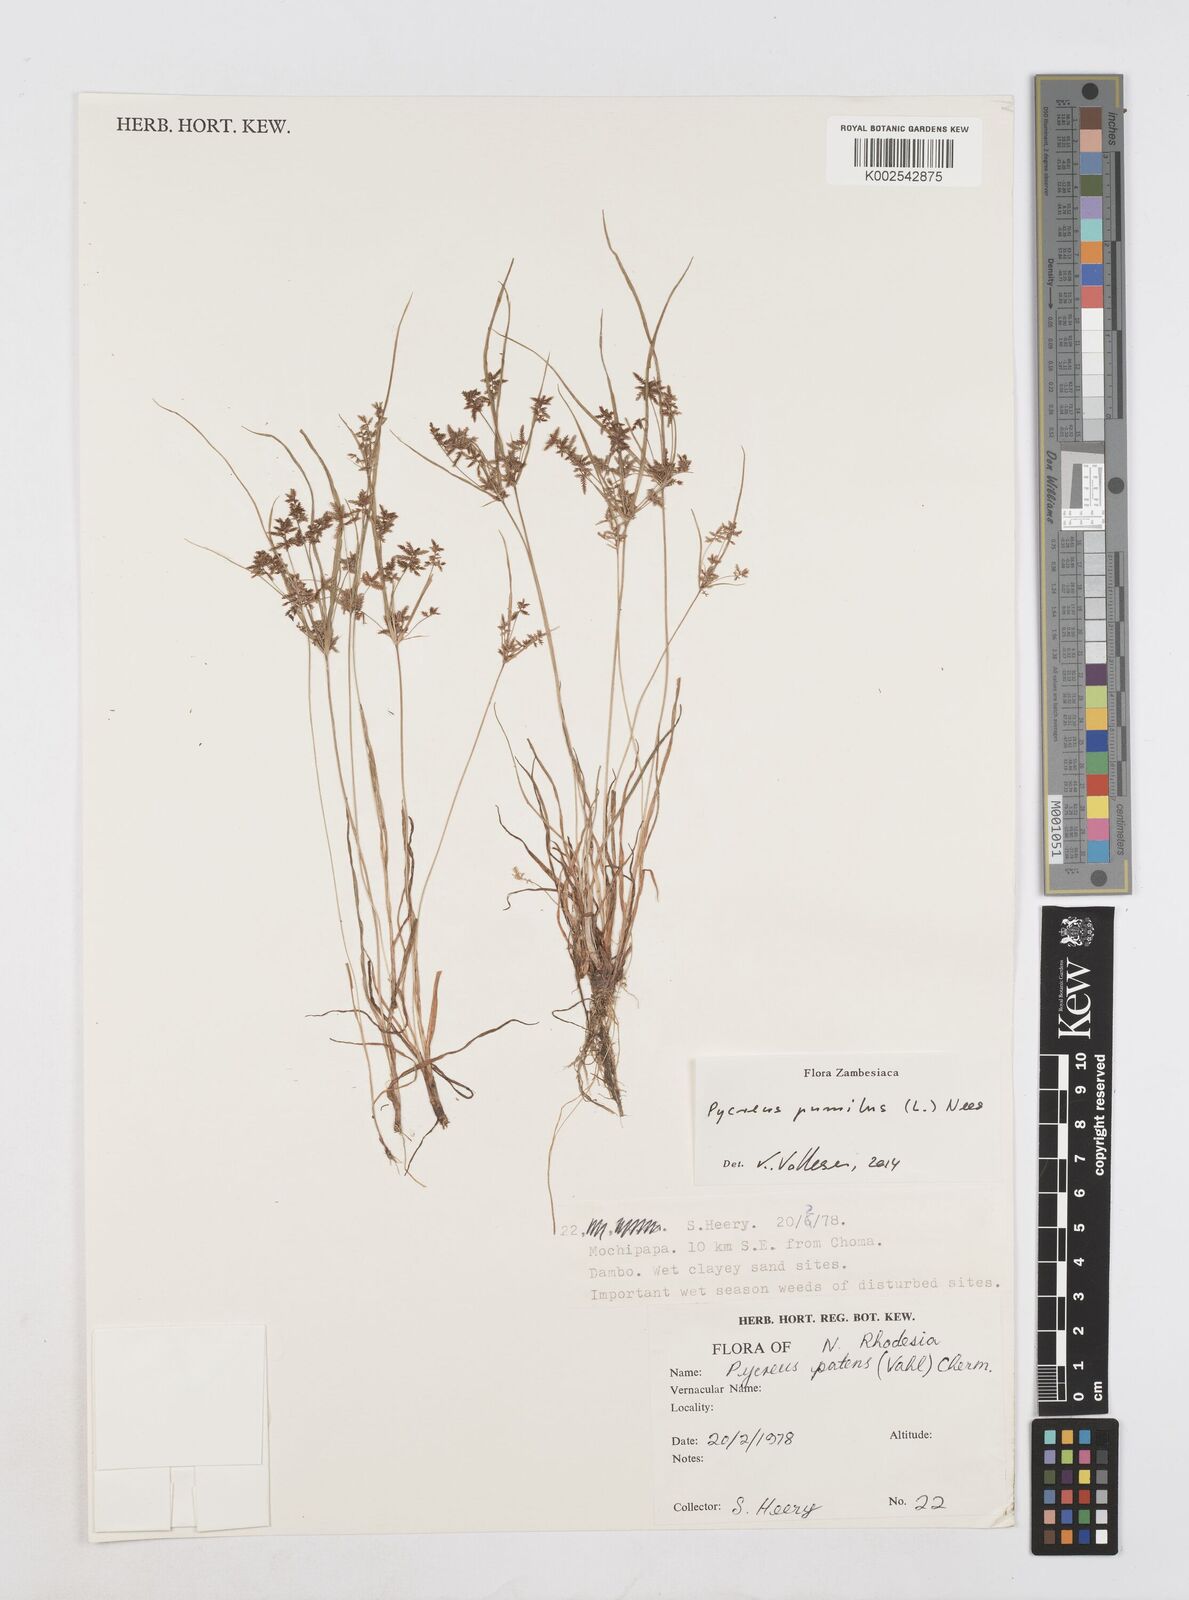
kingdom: Plantae
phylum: Tracheophyta
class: Liliopsida
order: Poales
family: Cyperaceae
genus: Cyperus
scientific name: Cyperus pumilus
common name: Low flatsedge
